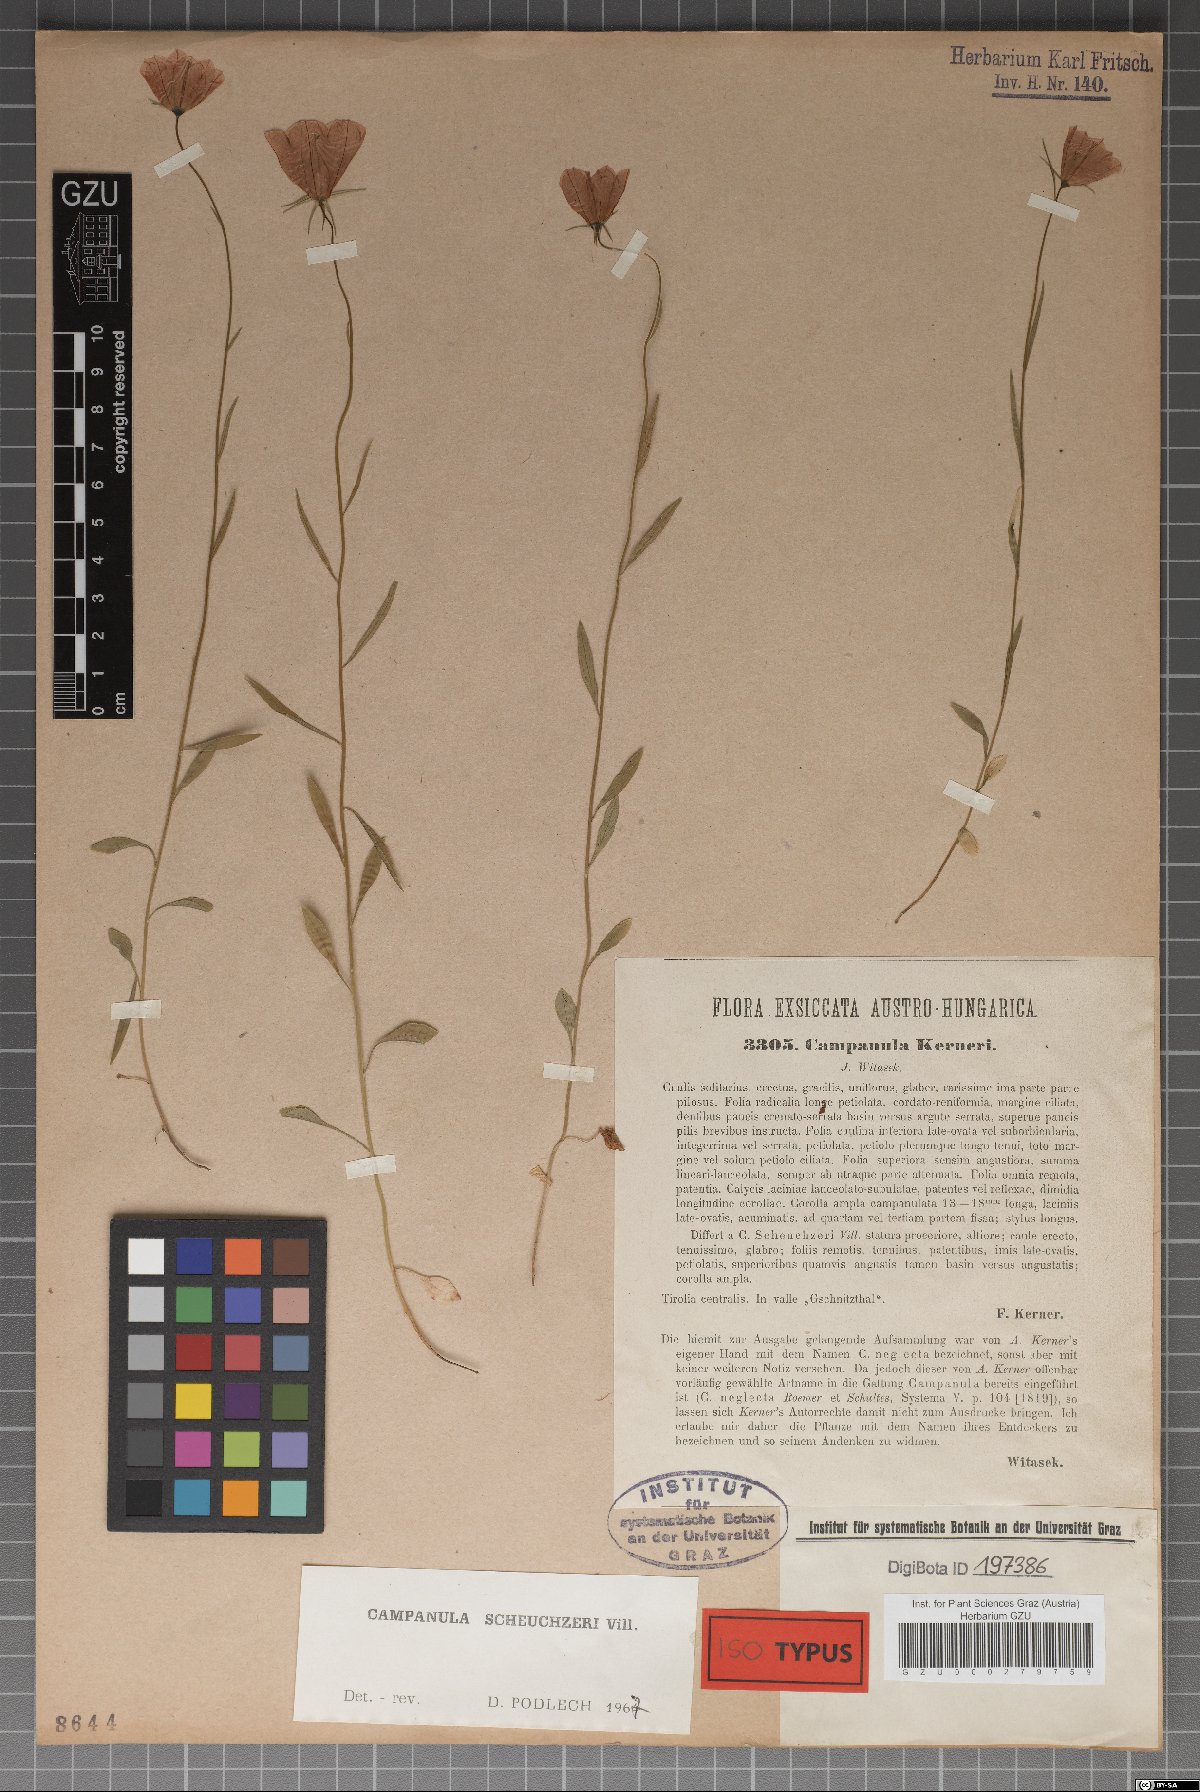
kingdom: Plantae
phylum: Tracheophyta
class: Magnoliopsida
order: Asterales
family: Campanulaceae
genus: Campanula
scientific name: Campanula scheuchzeri
